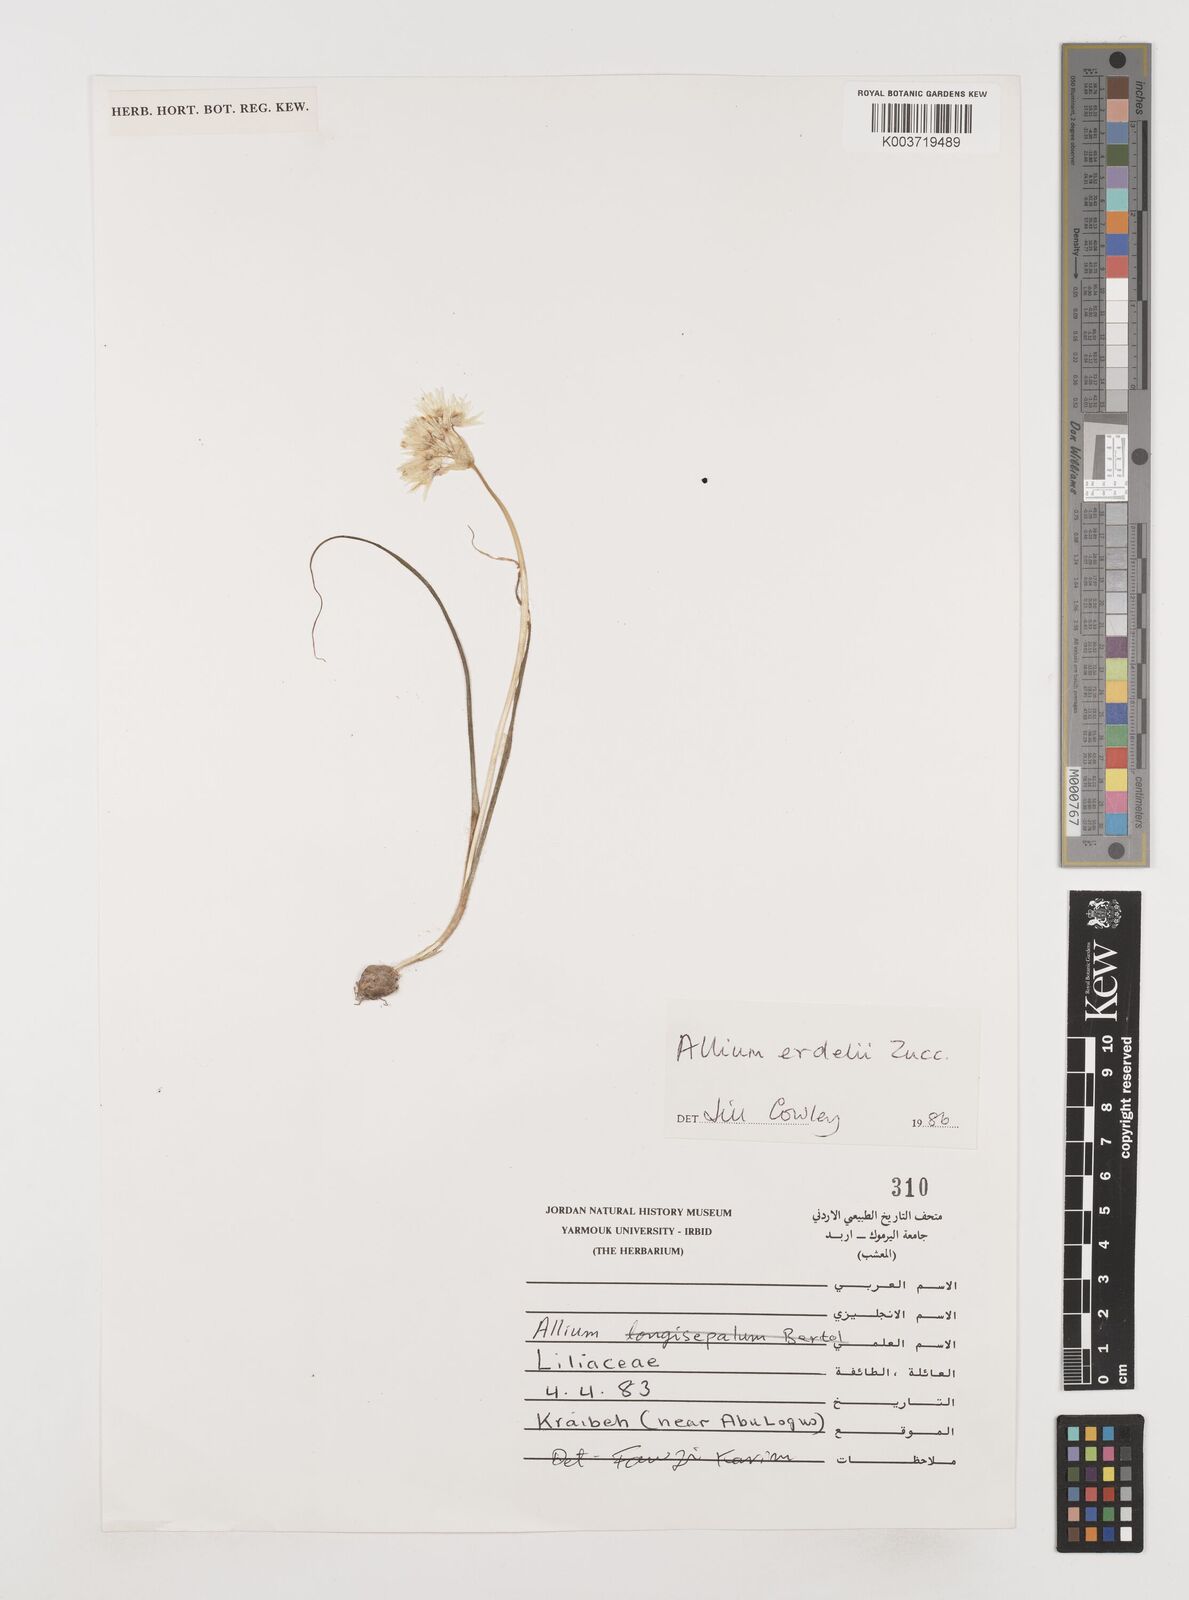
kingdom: Plantae
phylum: Tracheophyta
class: Liliopsida
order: Asparagales
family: Amaryllidaceae
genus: Allium
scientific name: Allium orientale
